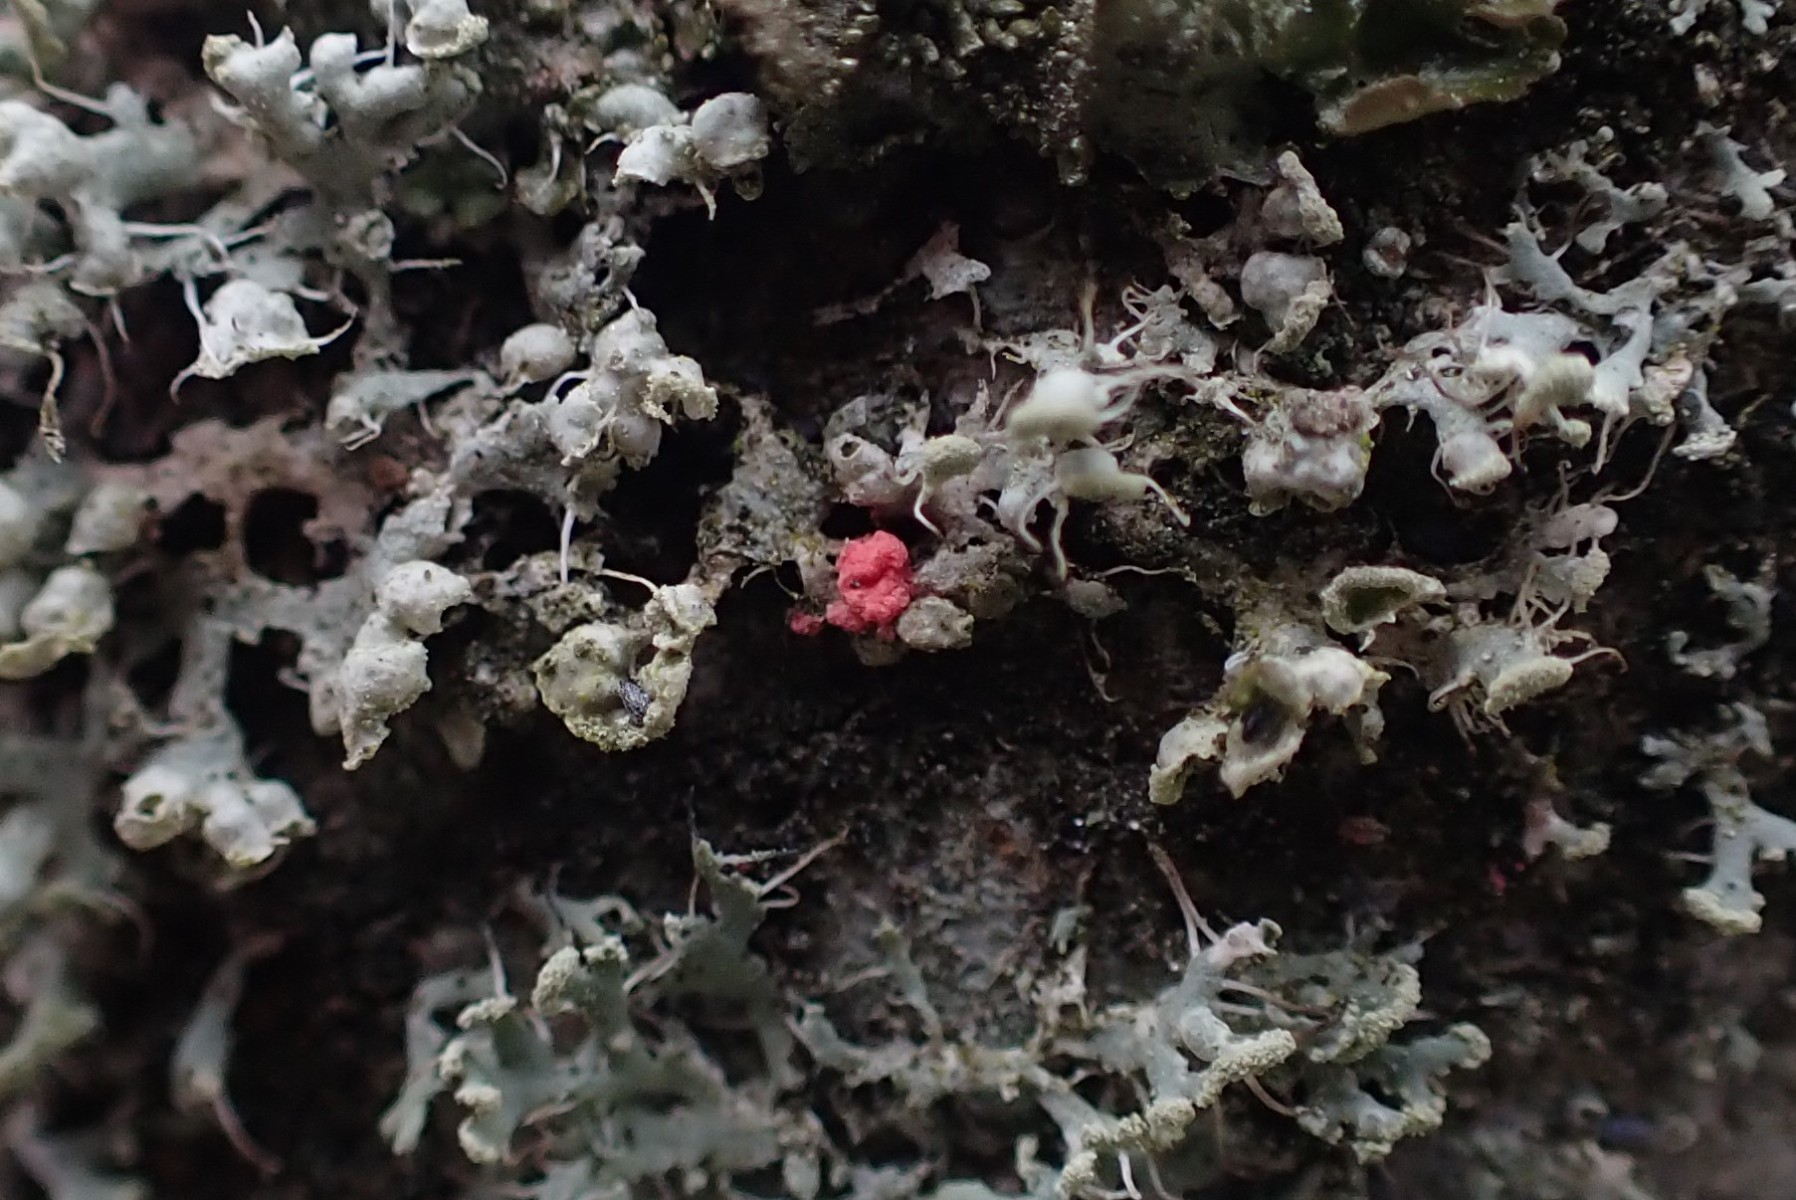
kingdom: Fungi
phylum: Ascomycota
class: Sordariomycetes
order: Hypocreales
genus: Illosporiopsis
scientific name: Illosporiopsis christiansenii
